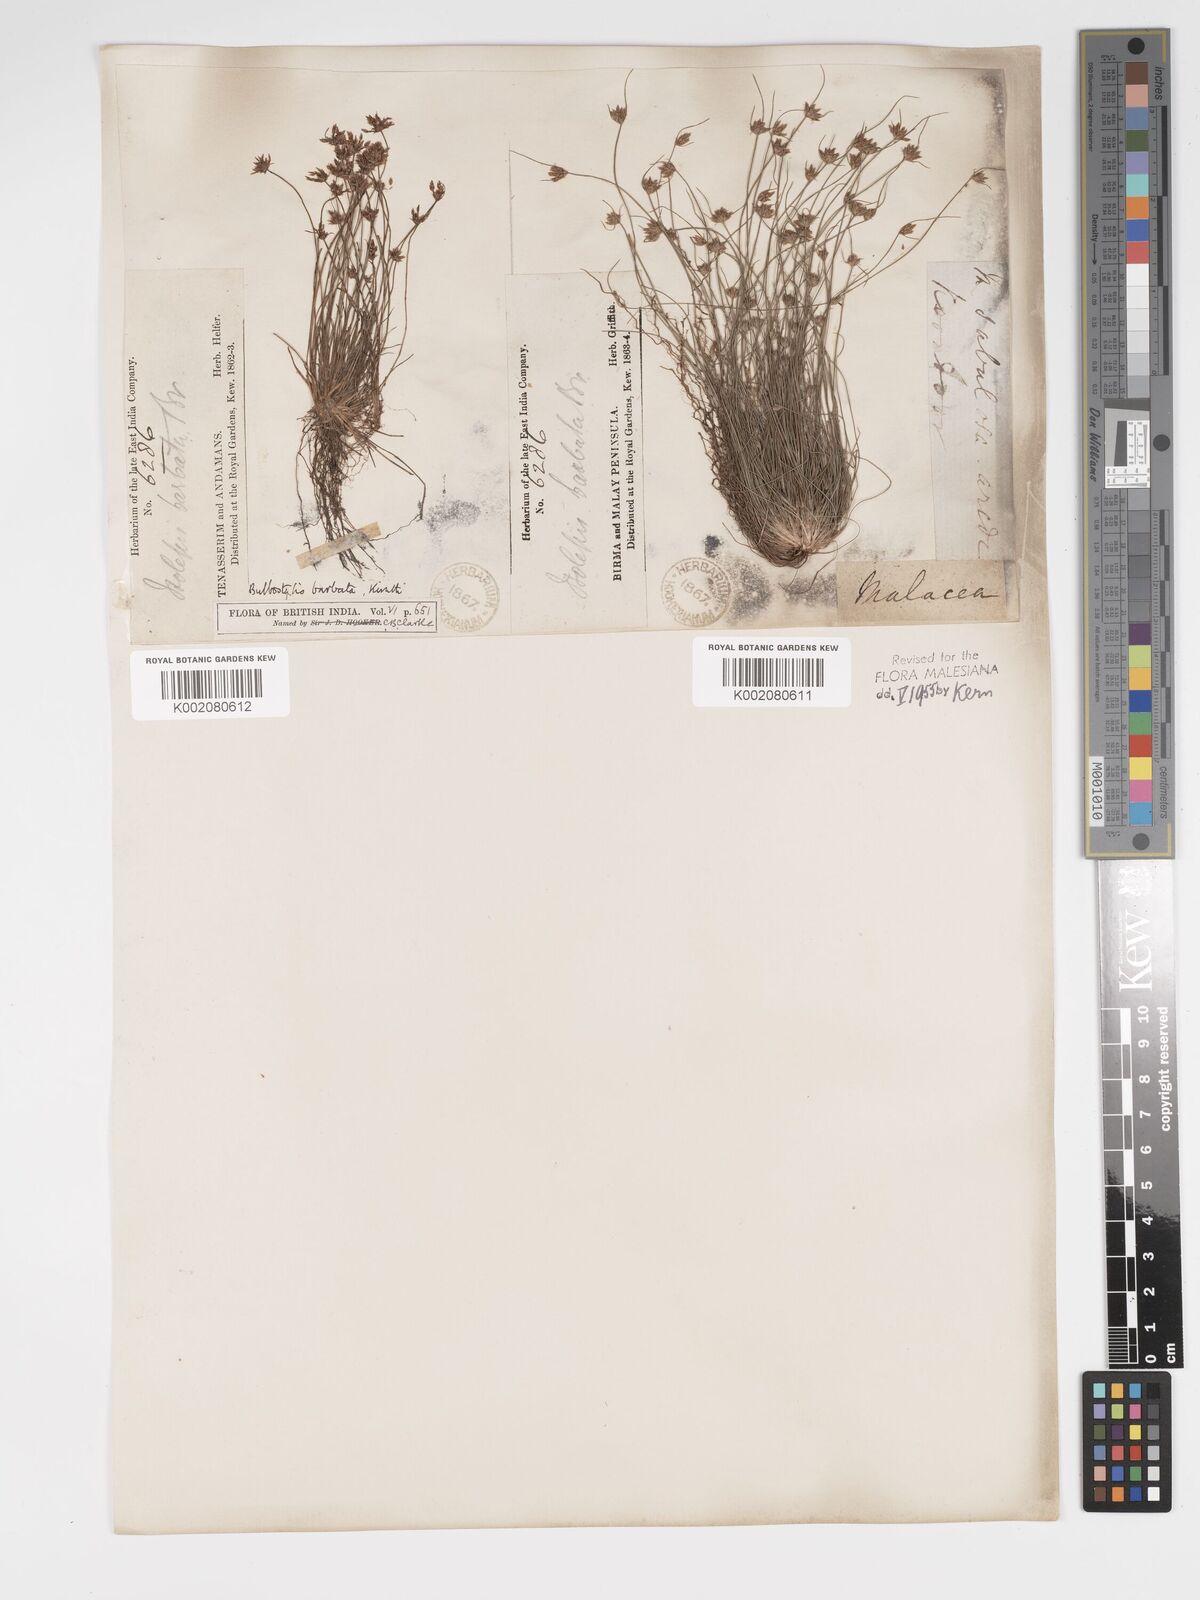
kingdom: Plantae
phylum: Tracheophyta
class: Liliopsida
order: Poales
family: Cyperaceae
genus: Bulbostylis
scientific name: Bulbostylis barbata
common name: Watergrass
